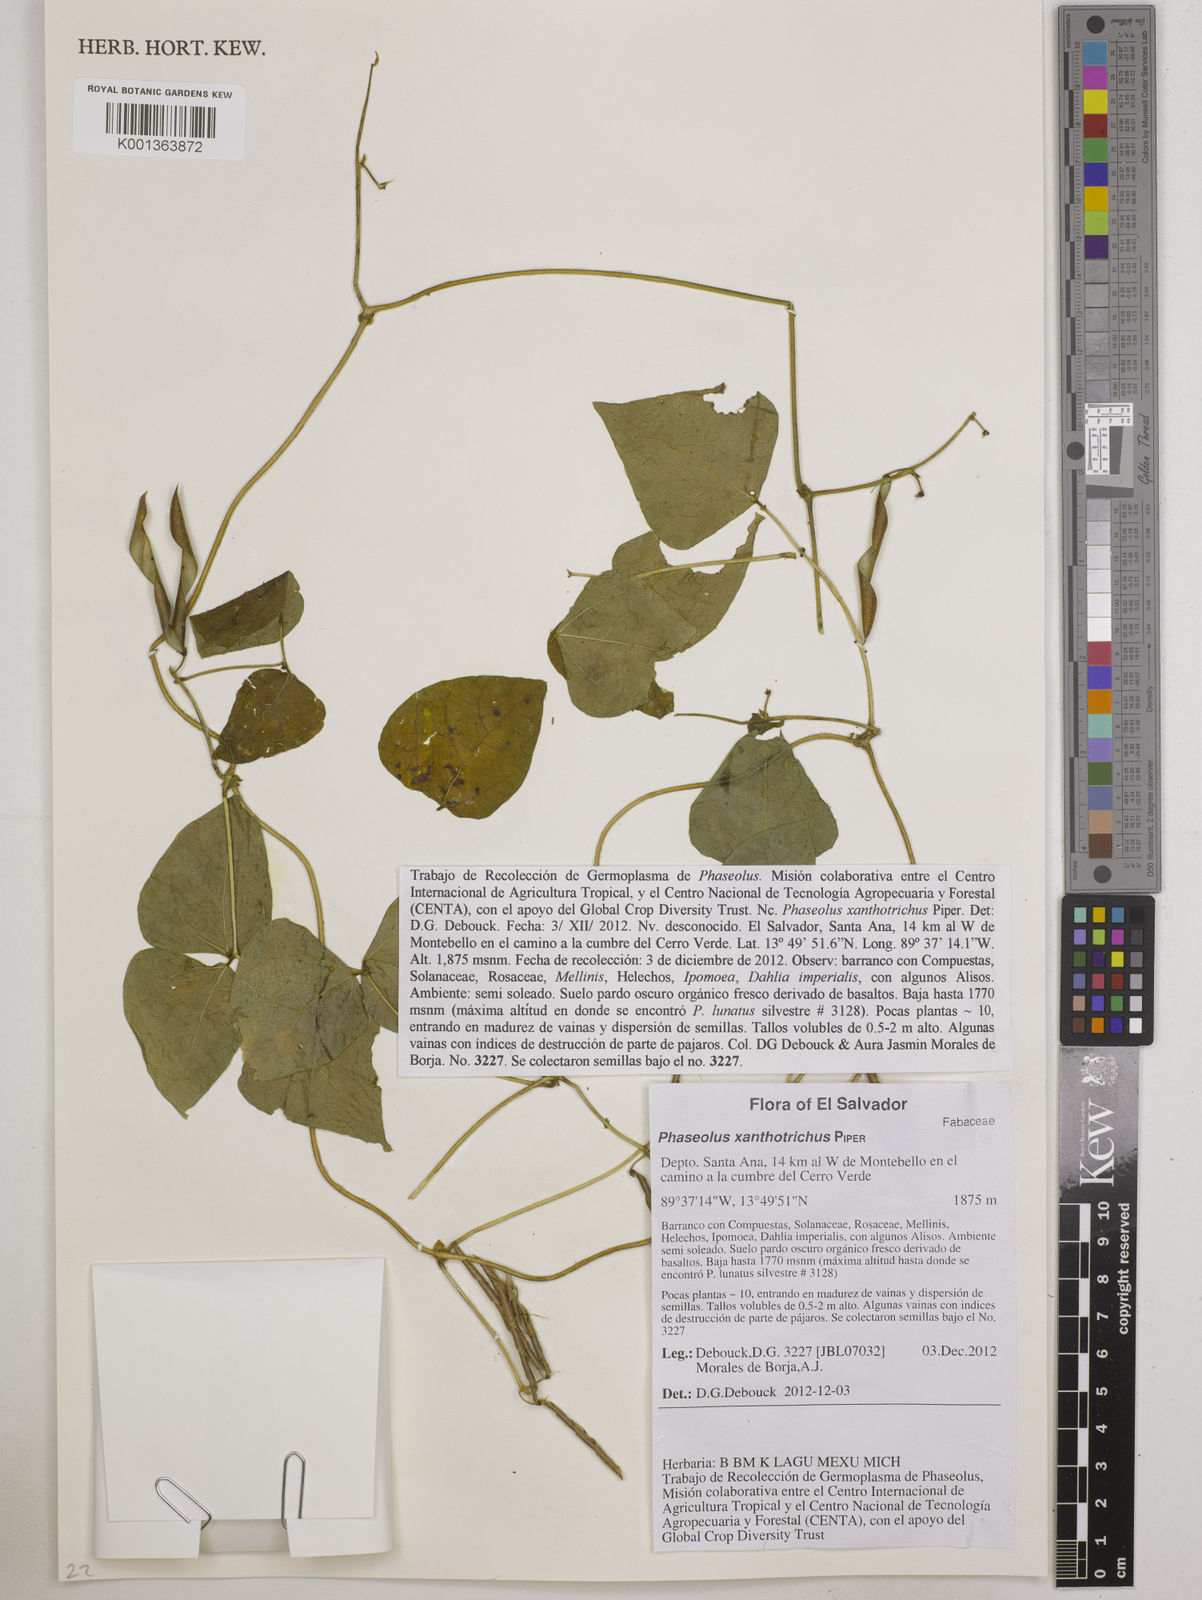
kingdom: Plantae
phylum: Tracheophyta
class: Magnoliopsida
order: Fabales
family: Fabaceae
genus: Phaseolus
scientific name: Phaseolus xanthotrichus
